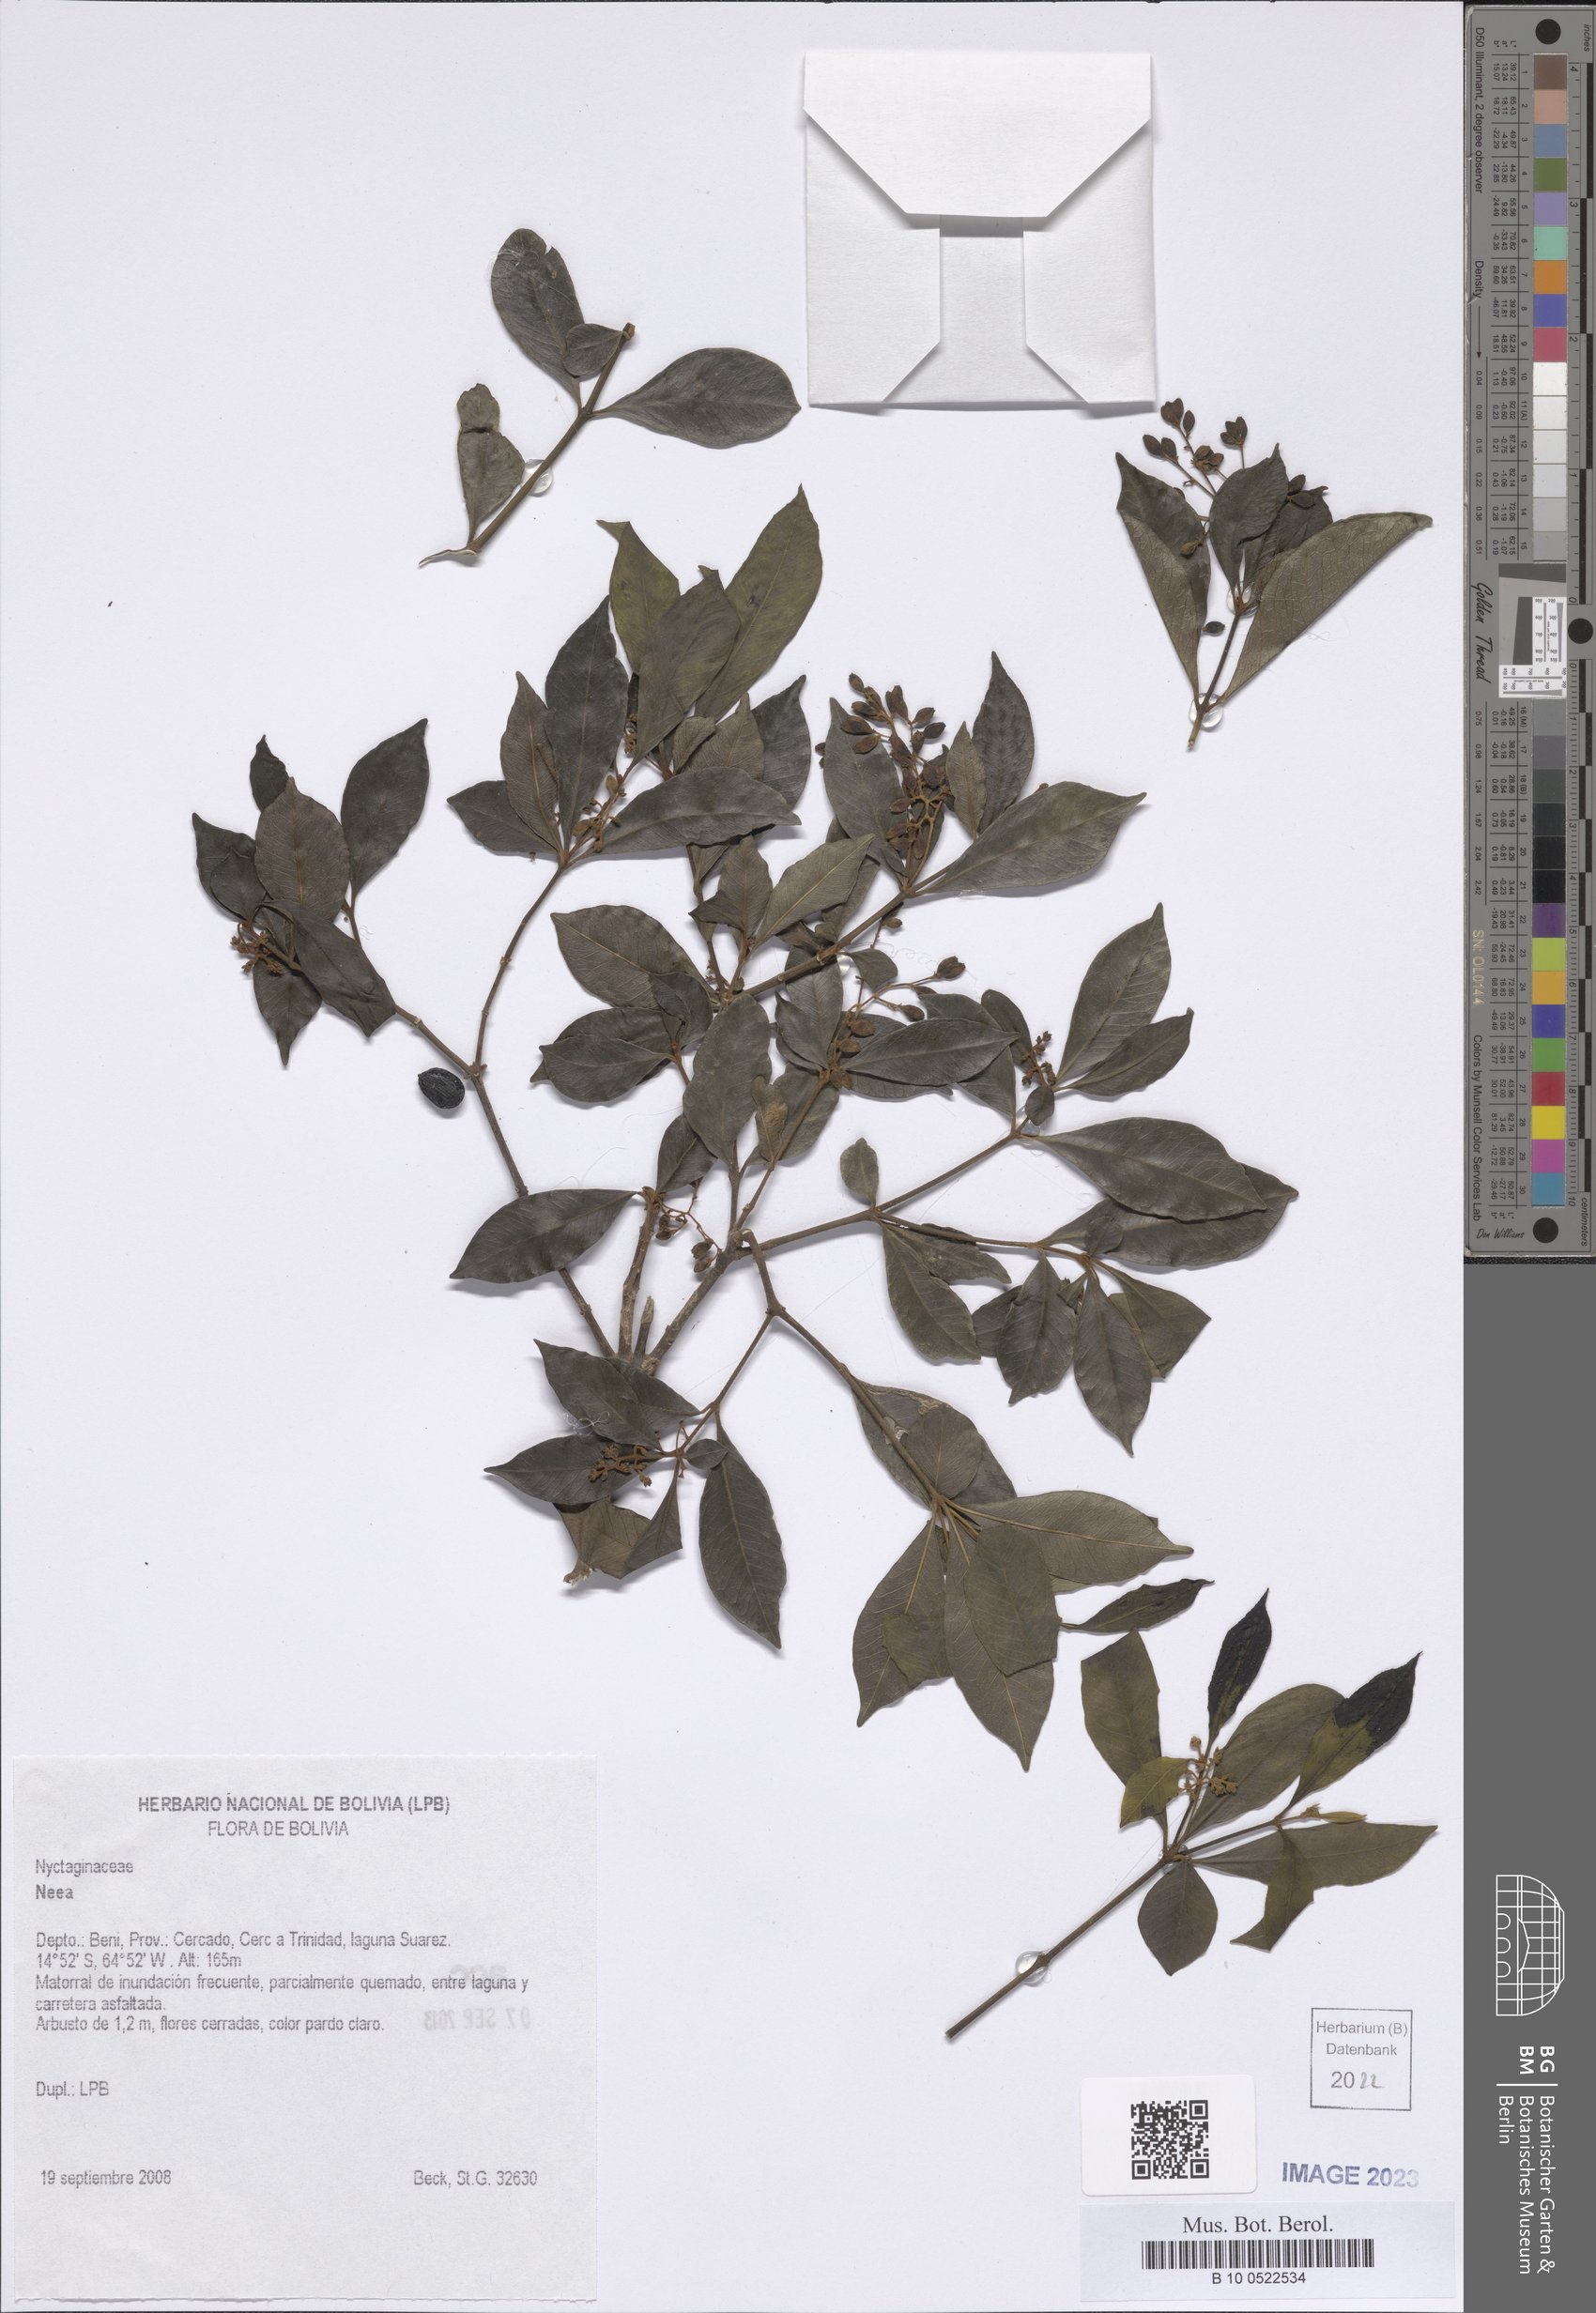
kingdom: Plantae
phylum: Tracheophyta
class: Magnoliopsida
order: Caryophyllales
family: Nyctaginaceae
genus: Neea
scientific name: Neea
